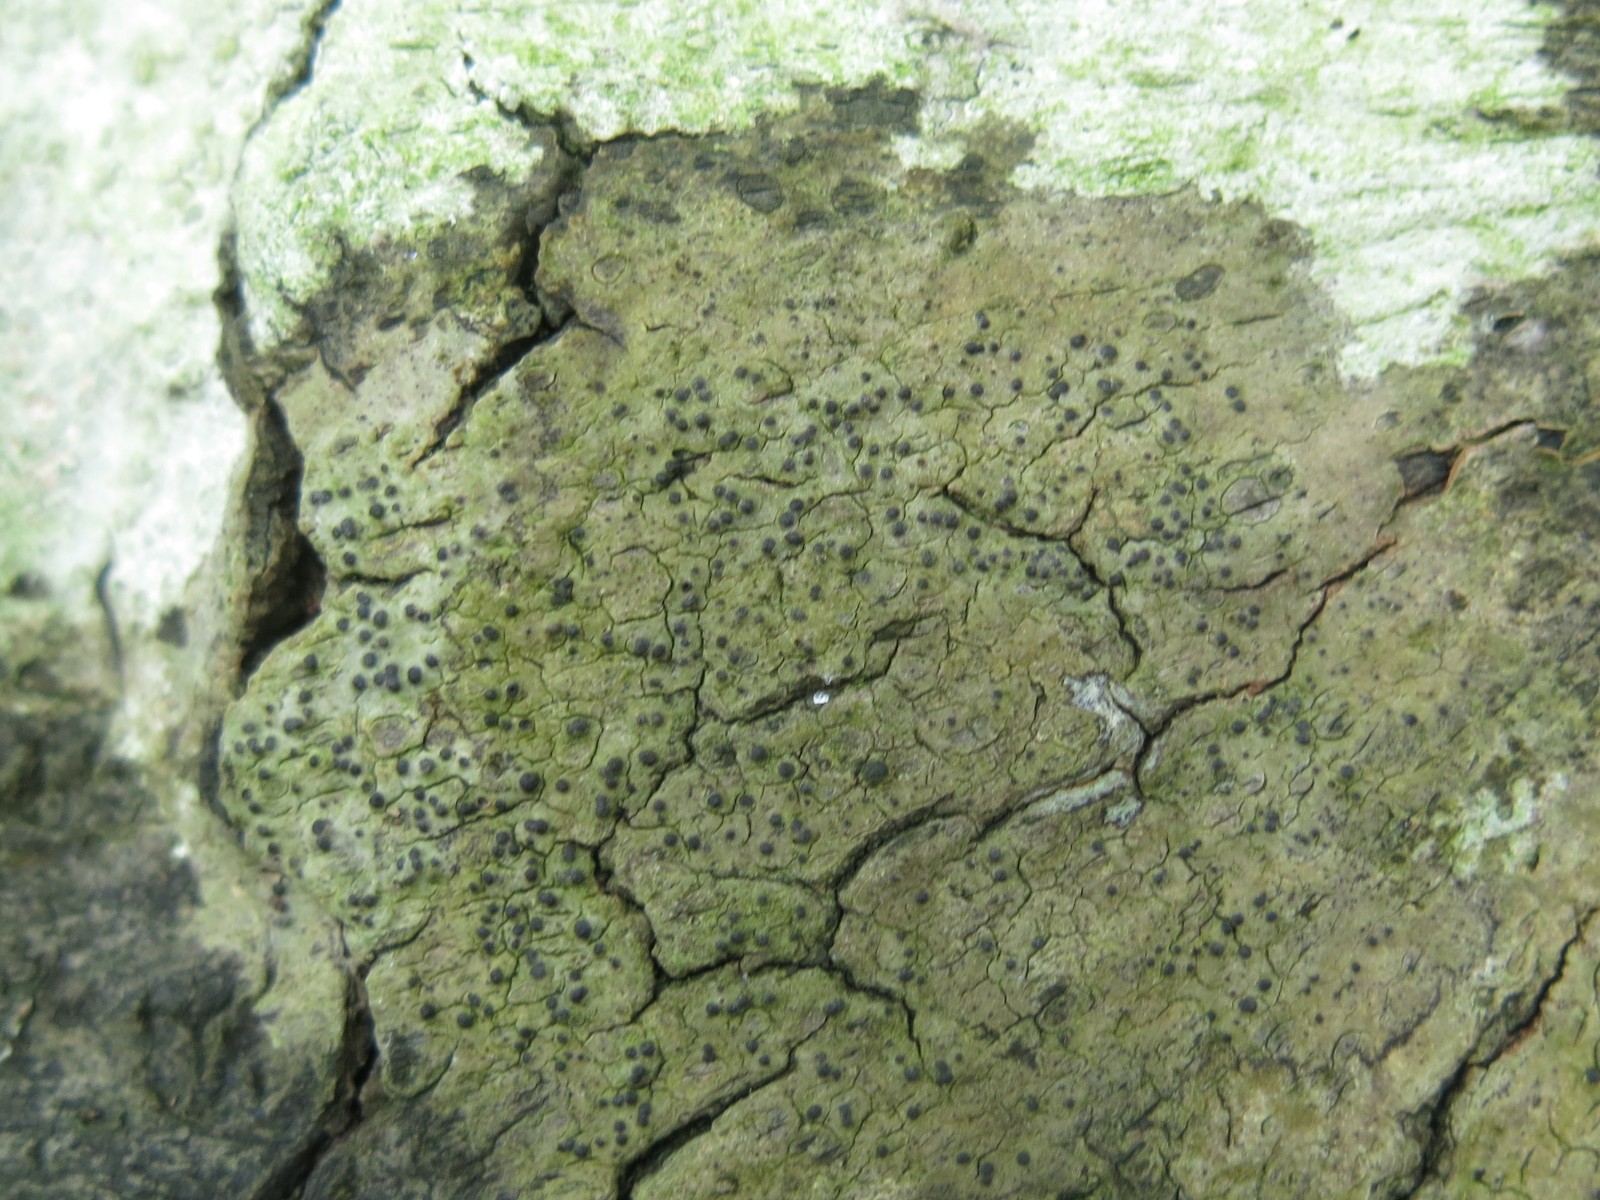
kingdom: Fungi
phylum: Ascomycota
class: Eurotiomycetes
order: Pyrenulales
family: Pyrenulaceae
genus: Pyrenula
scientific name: Pyrenula nitida
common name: glinsende kernelav
